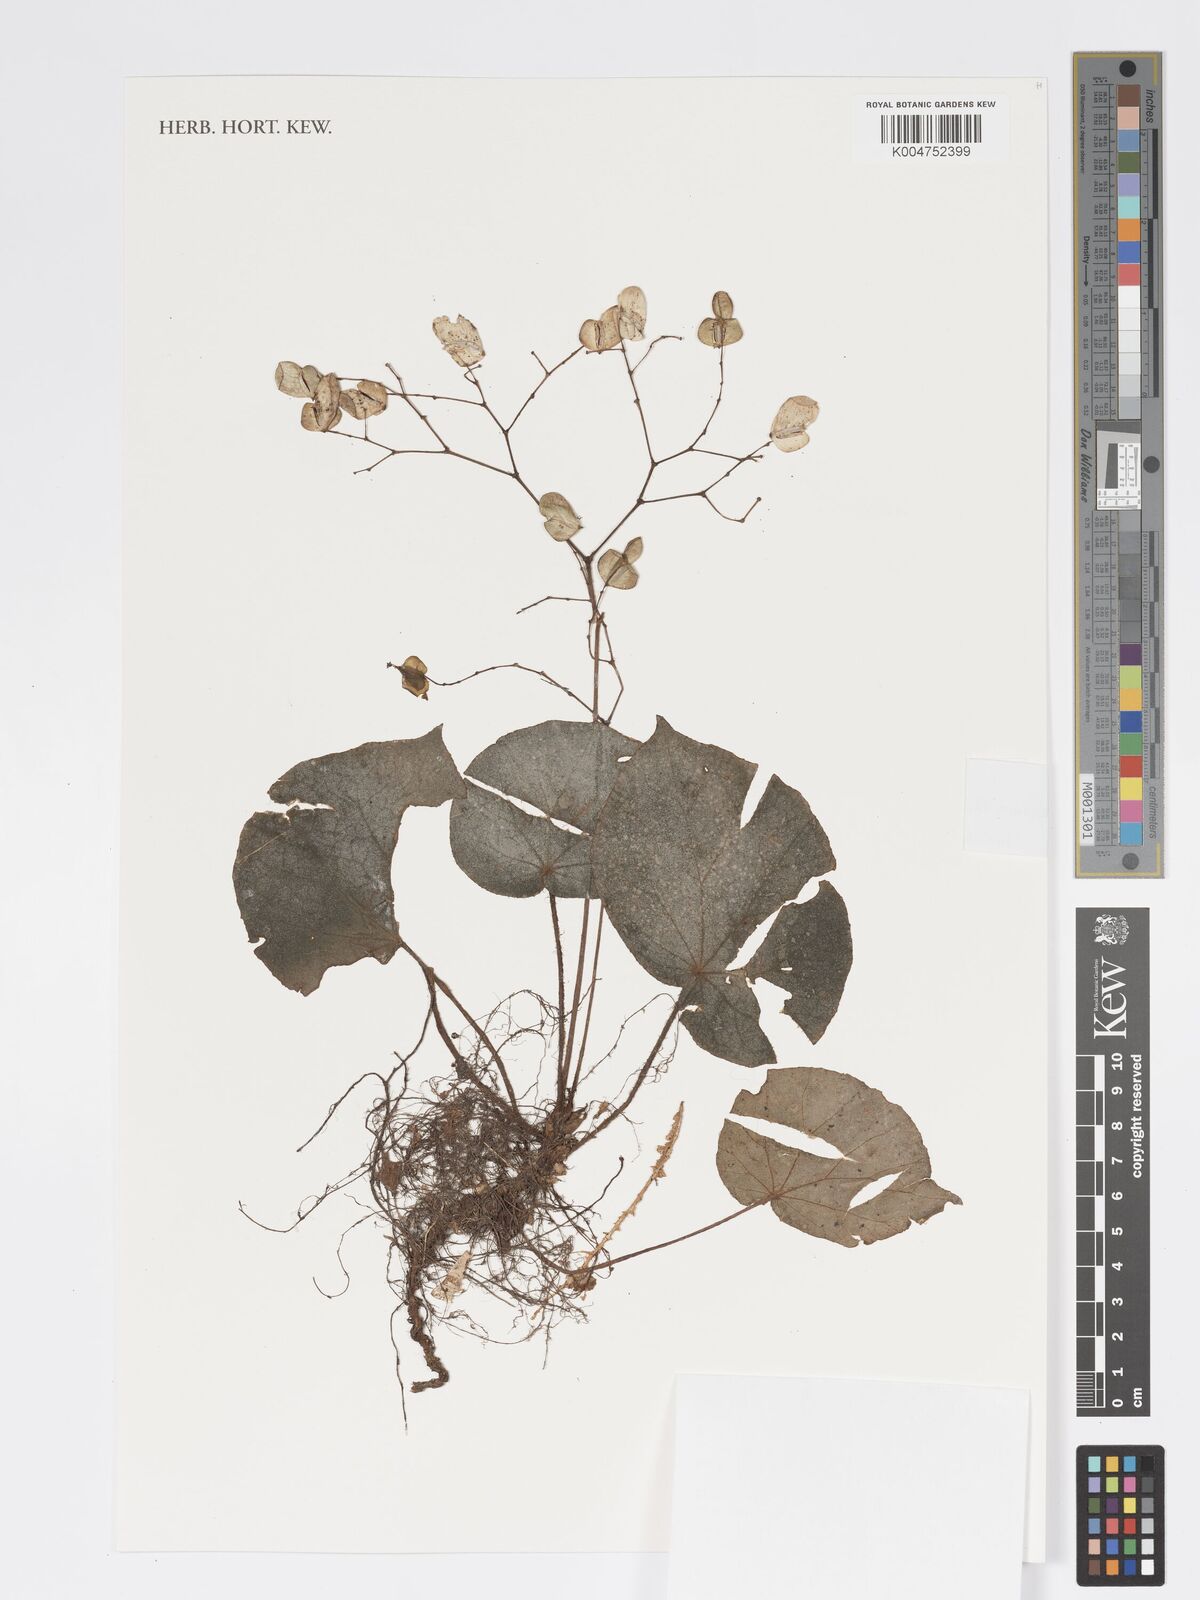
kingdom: Plantae
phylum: Tracheophyta
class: Magnoliopsida
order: Cucurbitales
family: Begoniaceae
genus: Begonia
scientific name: Begonia gueritziana
